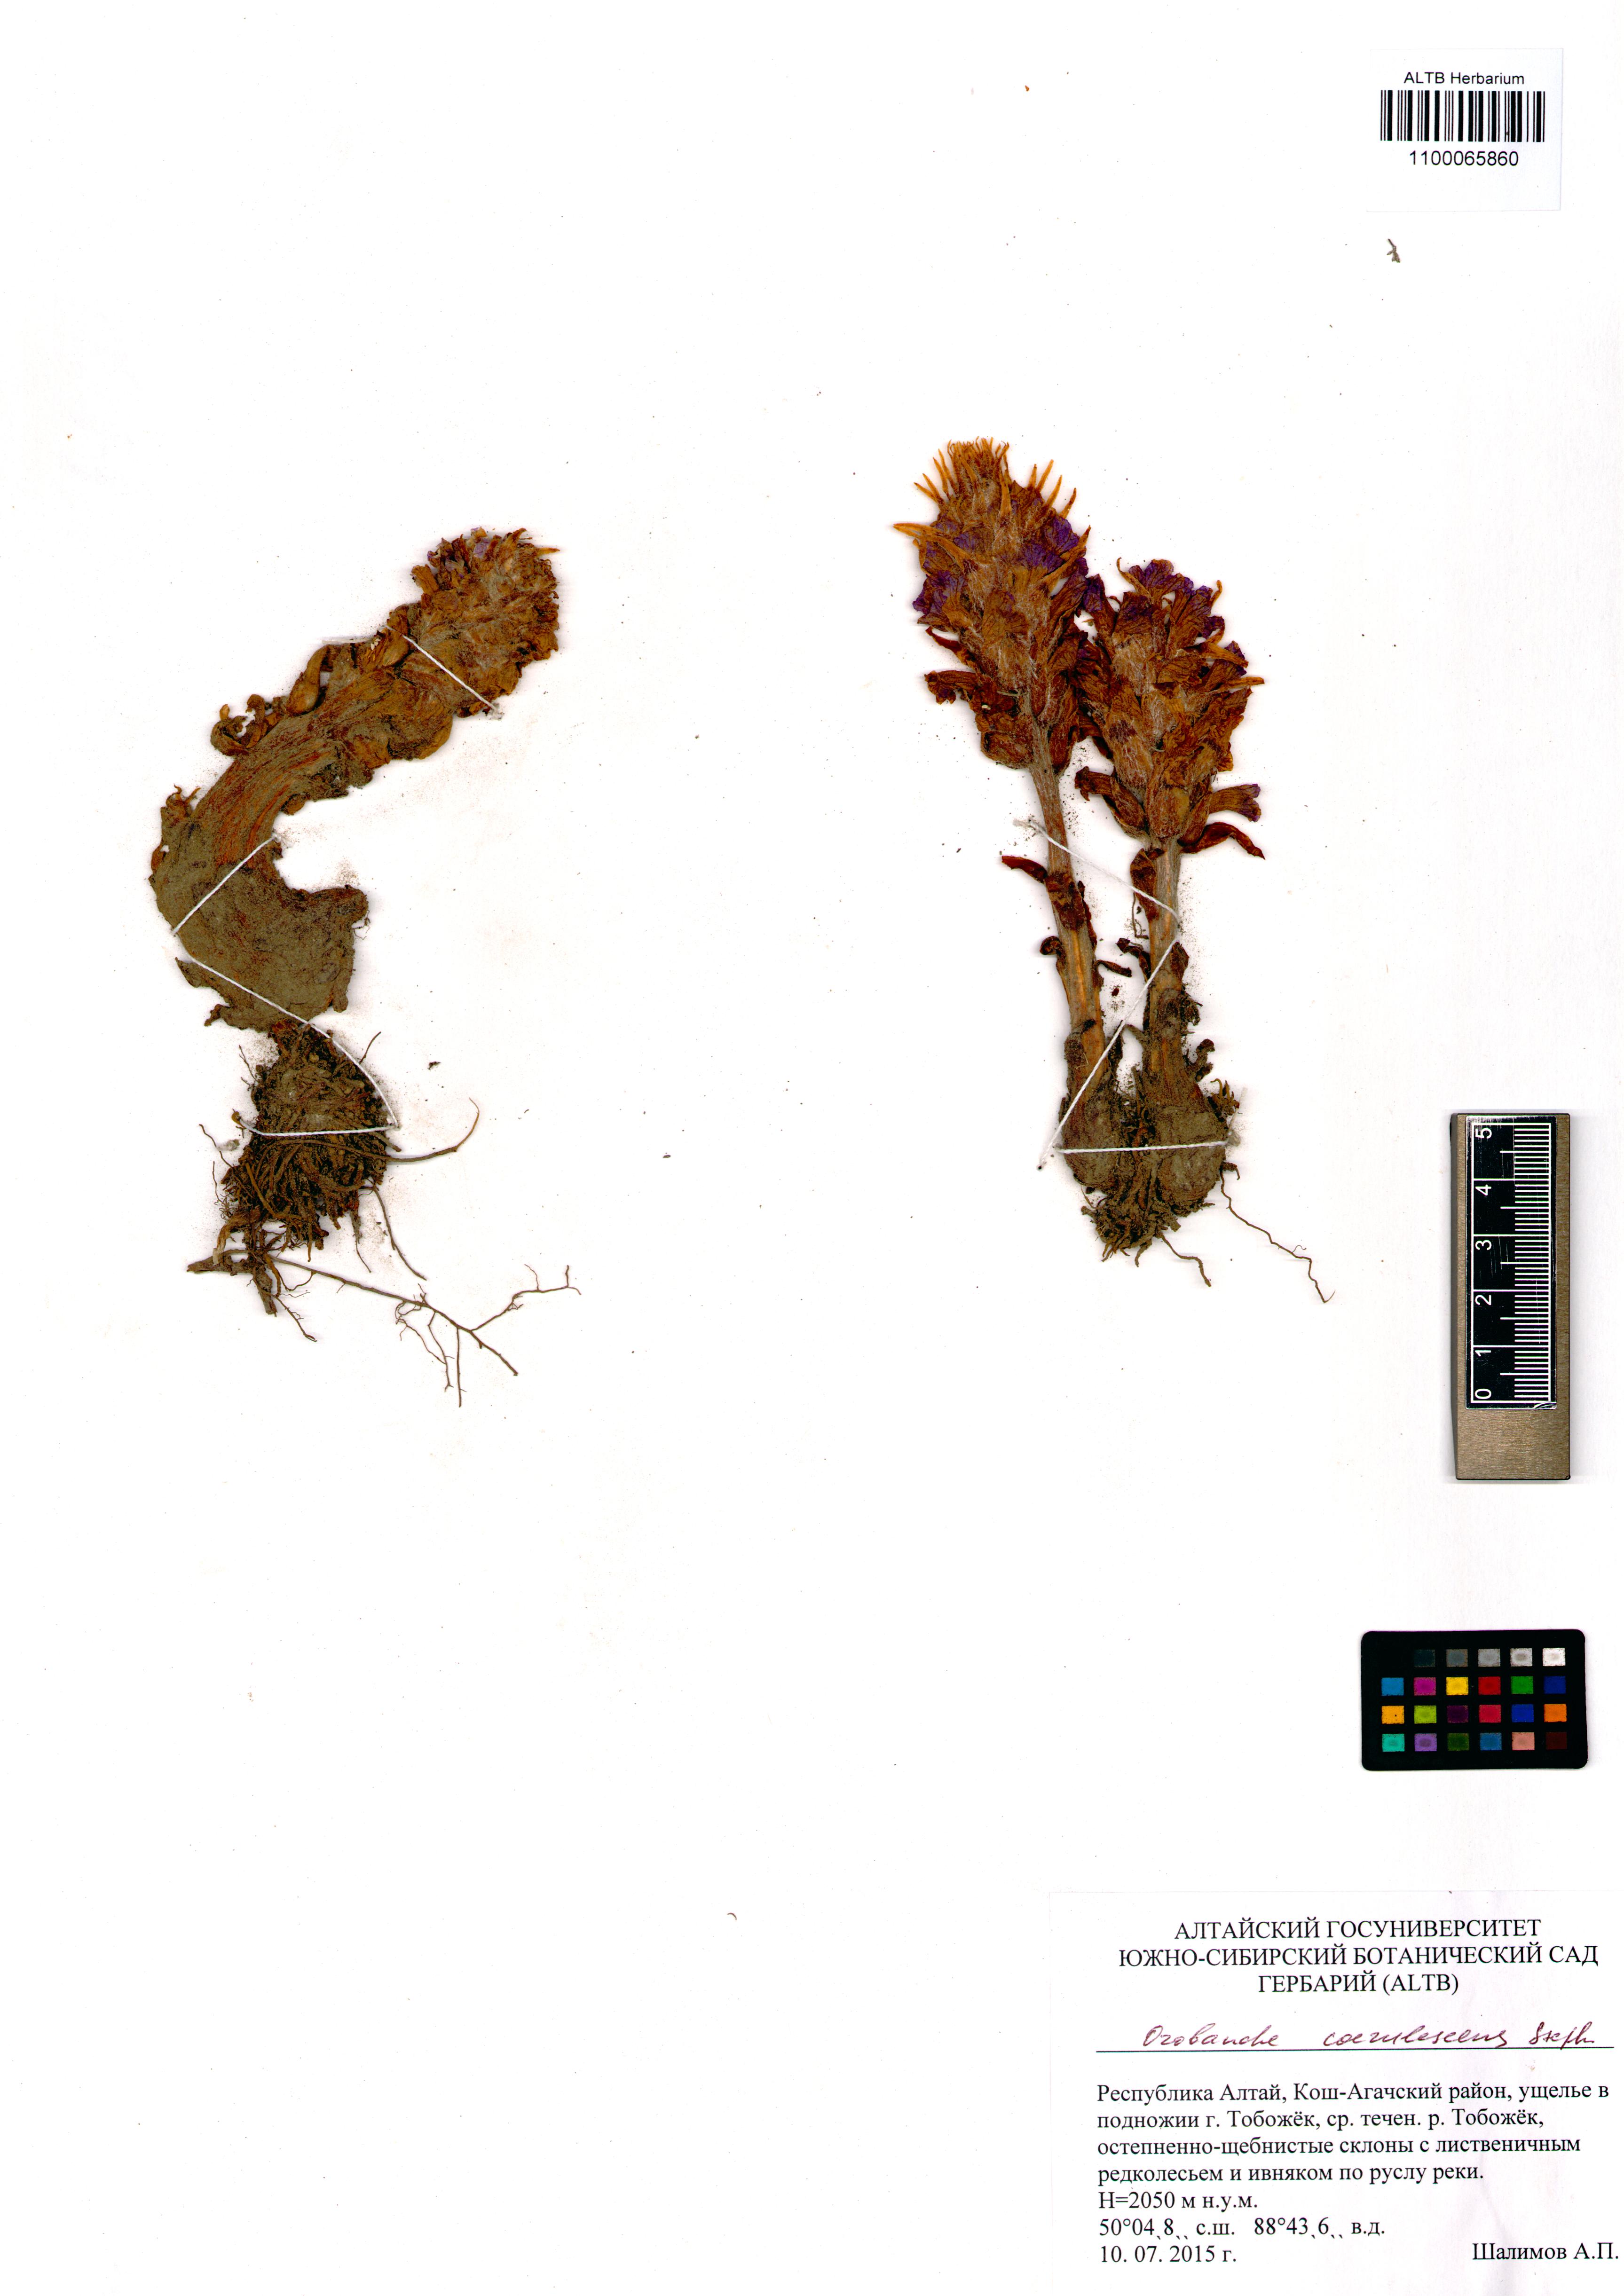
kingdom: Plantae
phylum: Tracheophyta
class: Magnoliopsida
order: Lamiales
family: Orobanchaceae
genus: Orobanche
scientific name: Orobanche coerulescens
